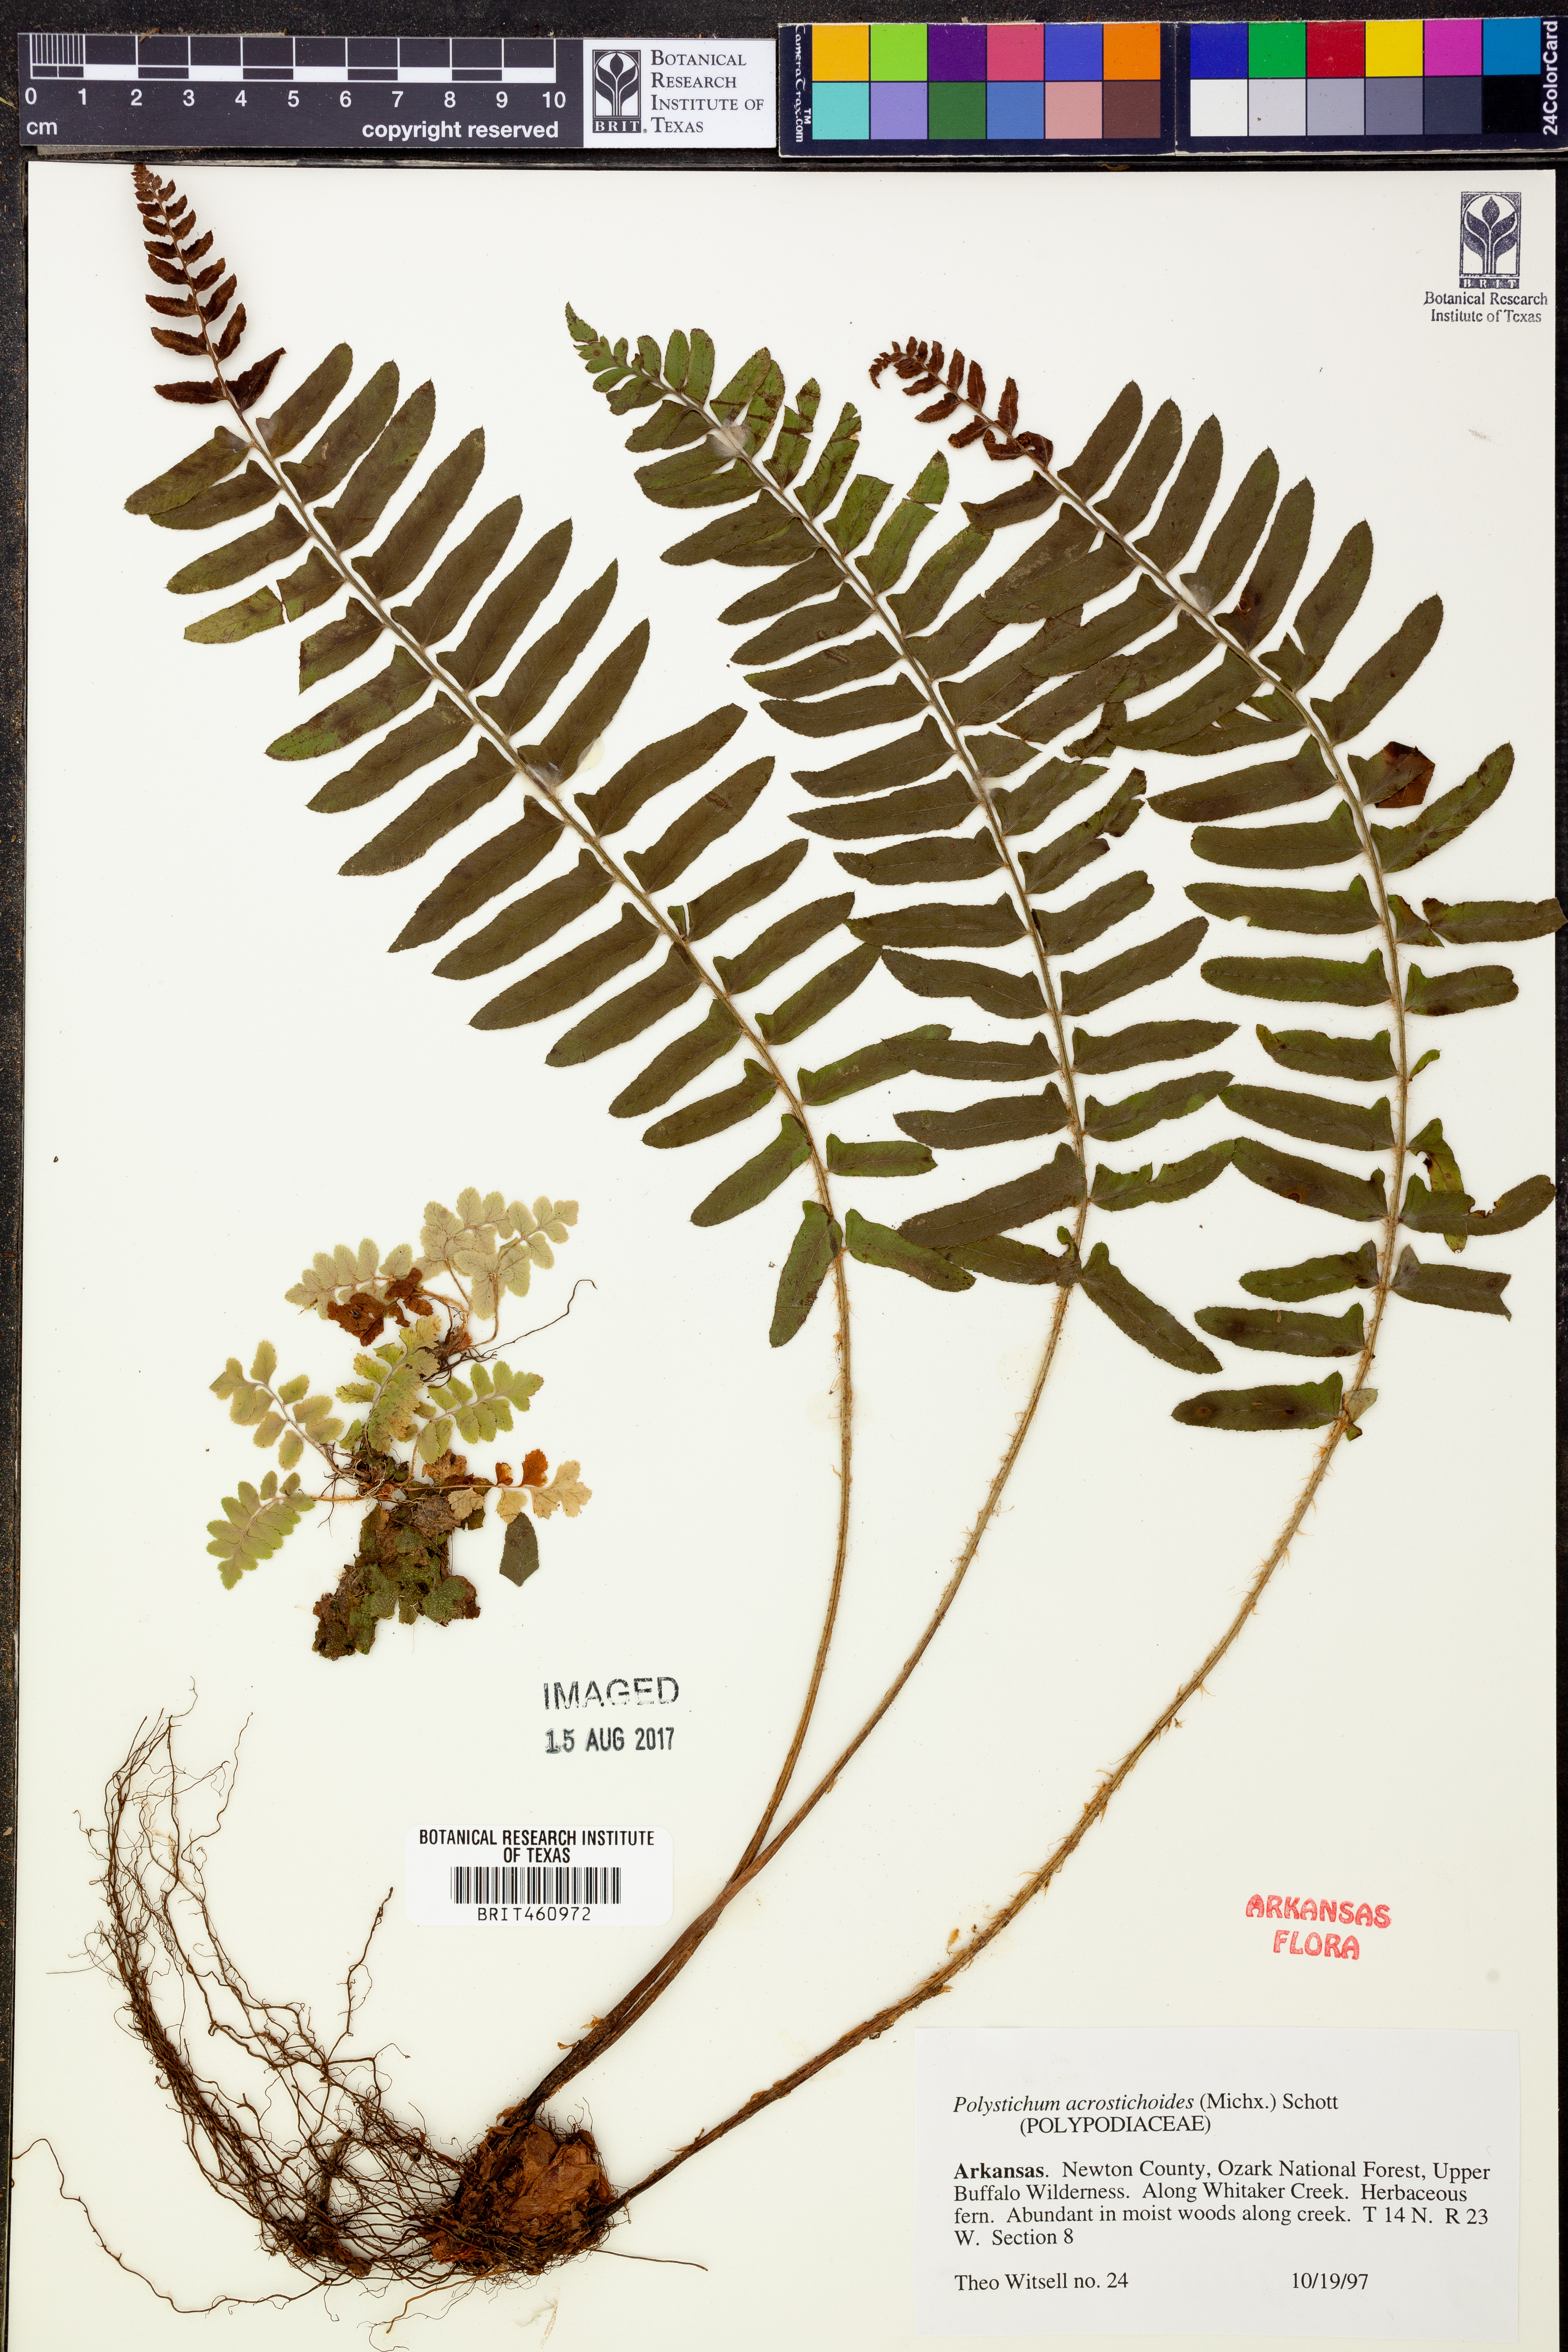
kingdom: Plantae
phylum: Tracheophyta
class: Polypodiopsida
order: Polypodiales
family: Dryopteridaceae
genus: Polystichum
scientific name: Polystichum acrostichoides
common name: Christmas fern
